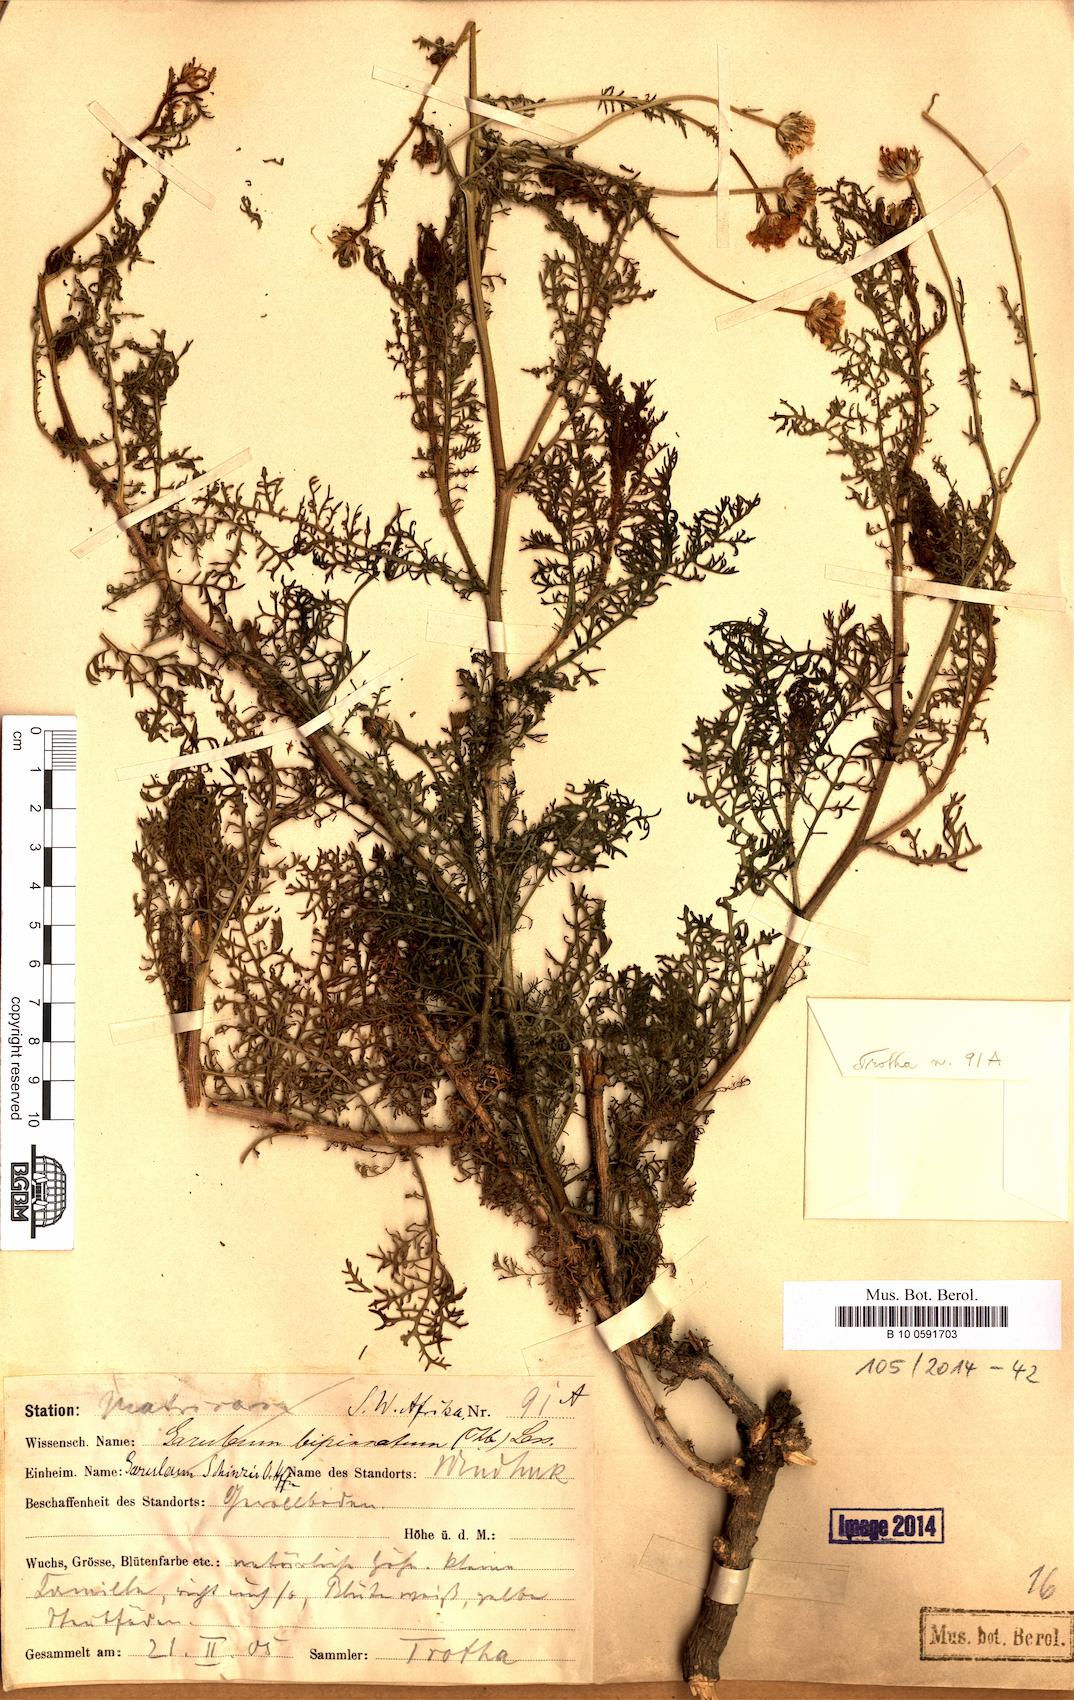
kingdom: Plantae
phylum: Tracheophyta
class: Magnoliopsida
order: Asterales
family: Asteraceae
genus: Garuleum
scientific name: Garuleum schinzii
